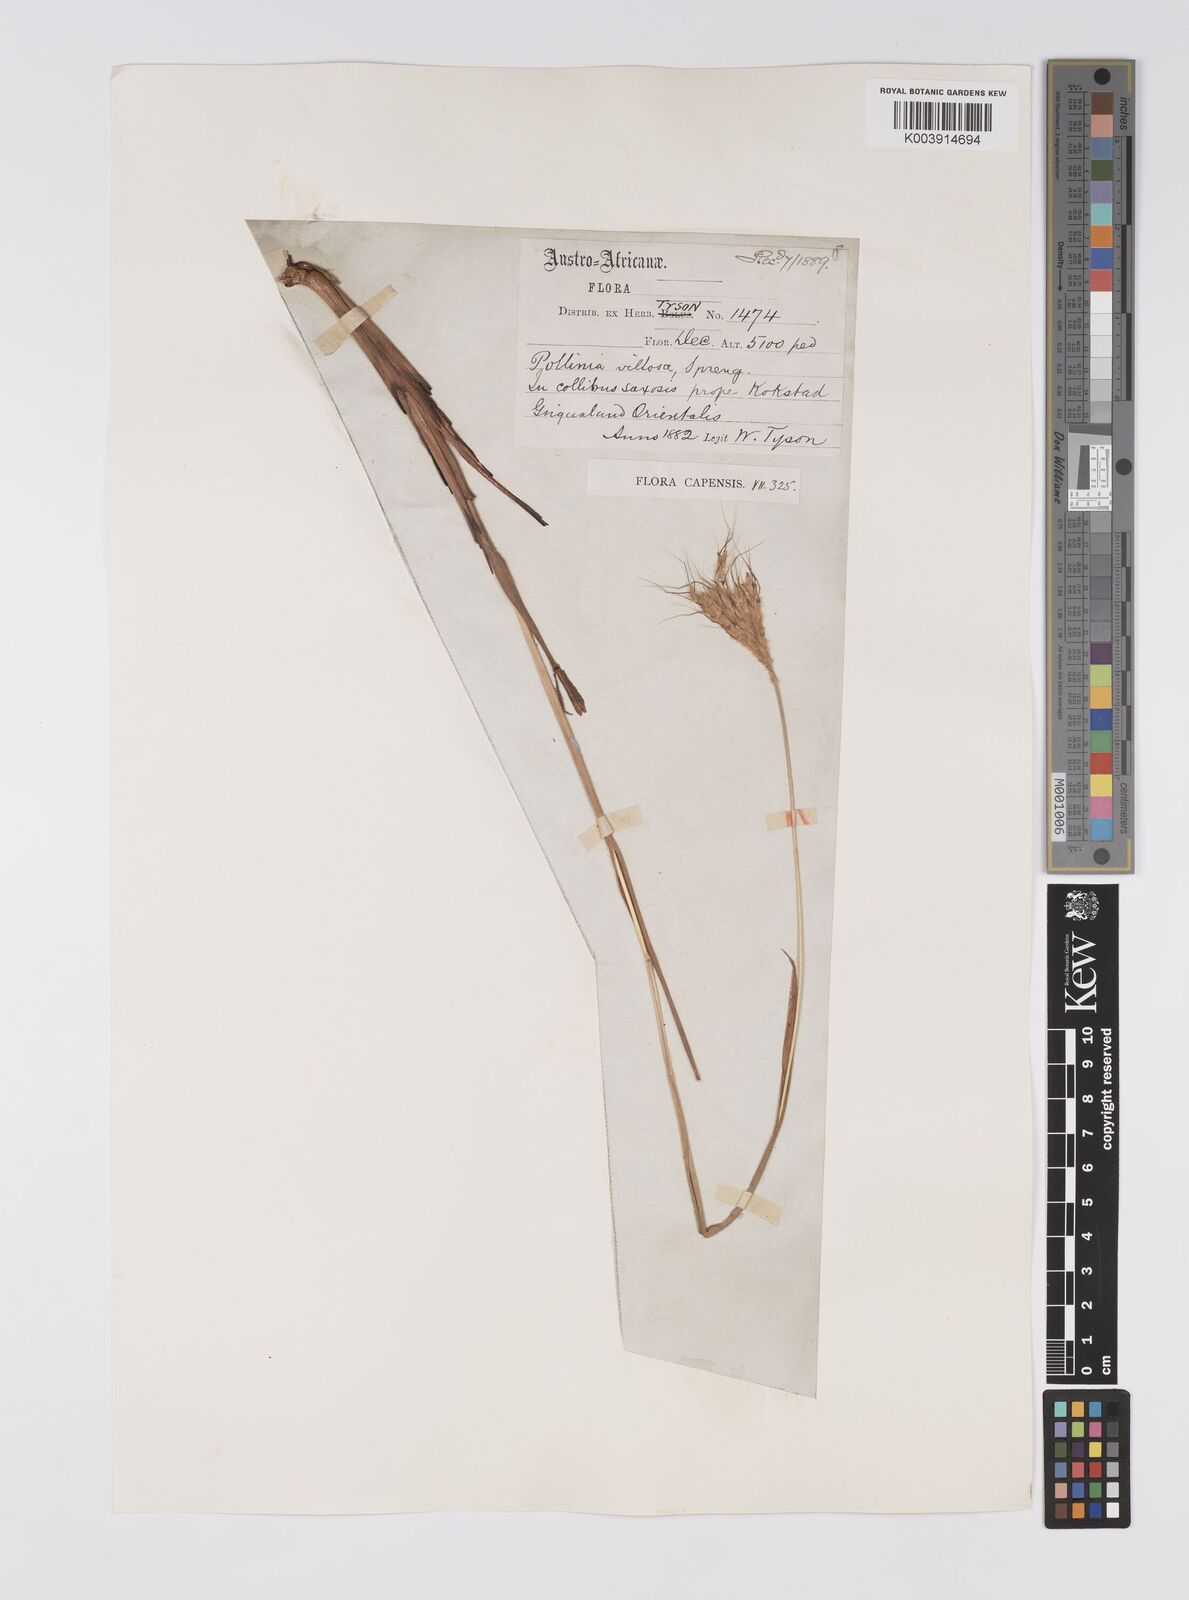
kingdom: Plantae
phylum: Tracheophyta
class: Liliopsida
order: Poales
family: Poaceae
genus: Eulalia
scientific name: Eulalia villosa
